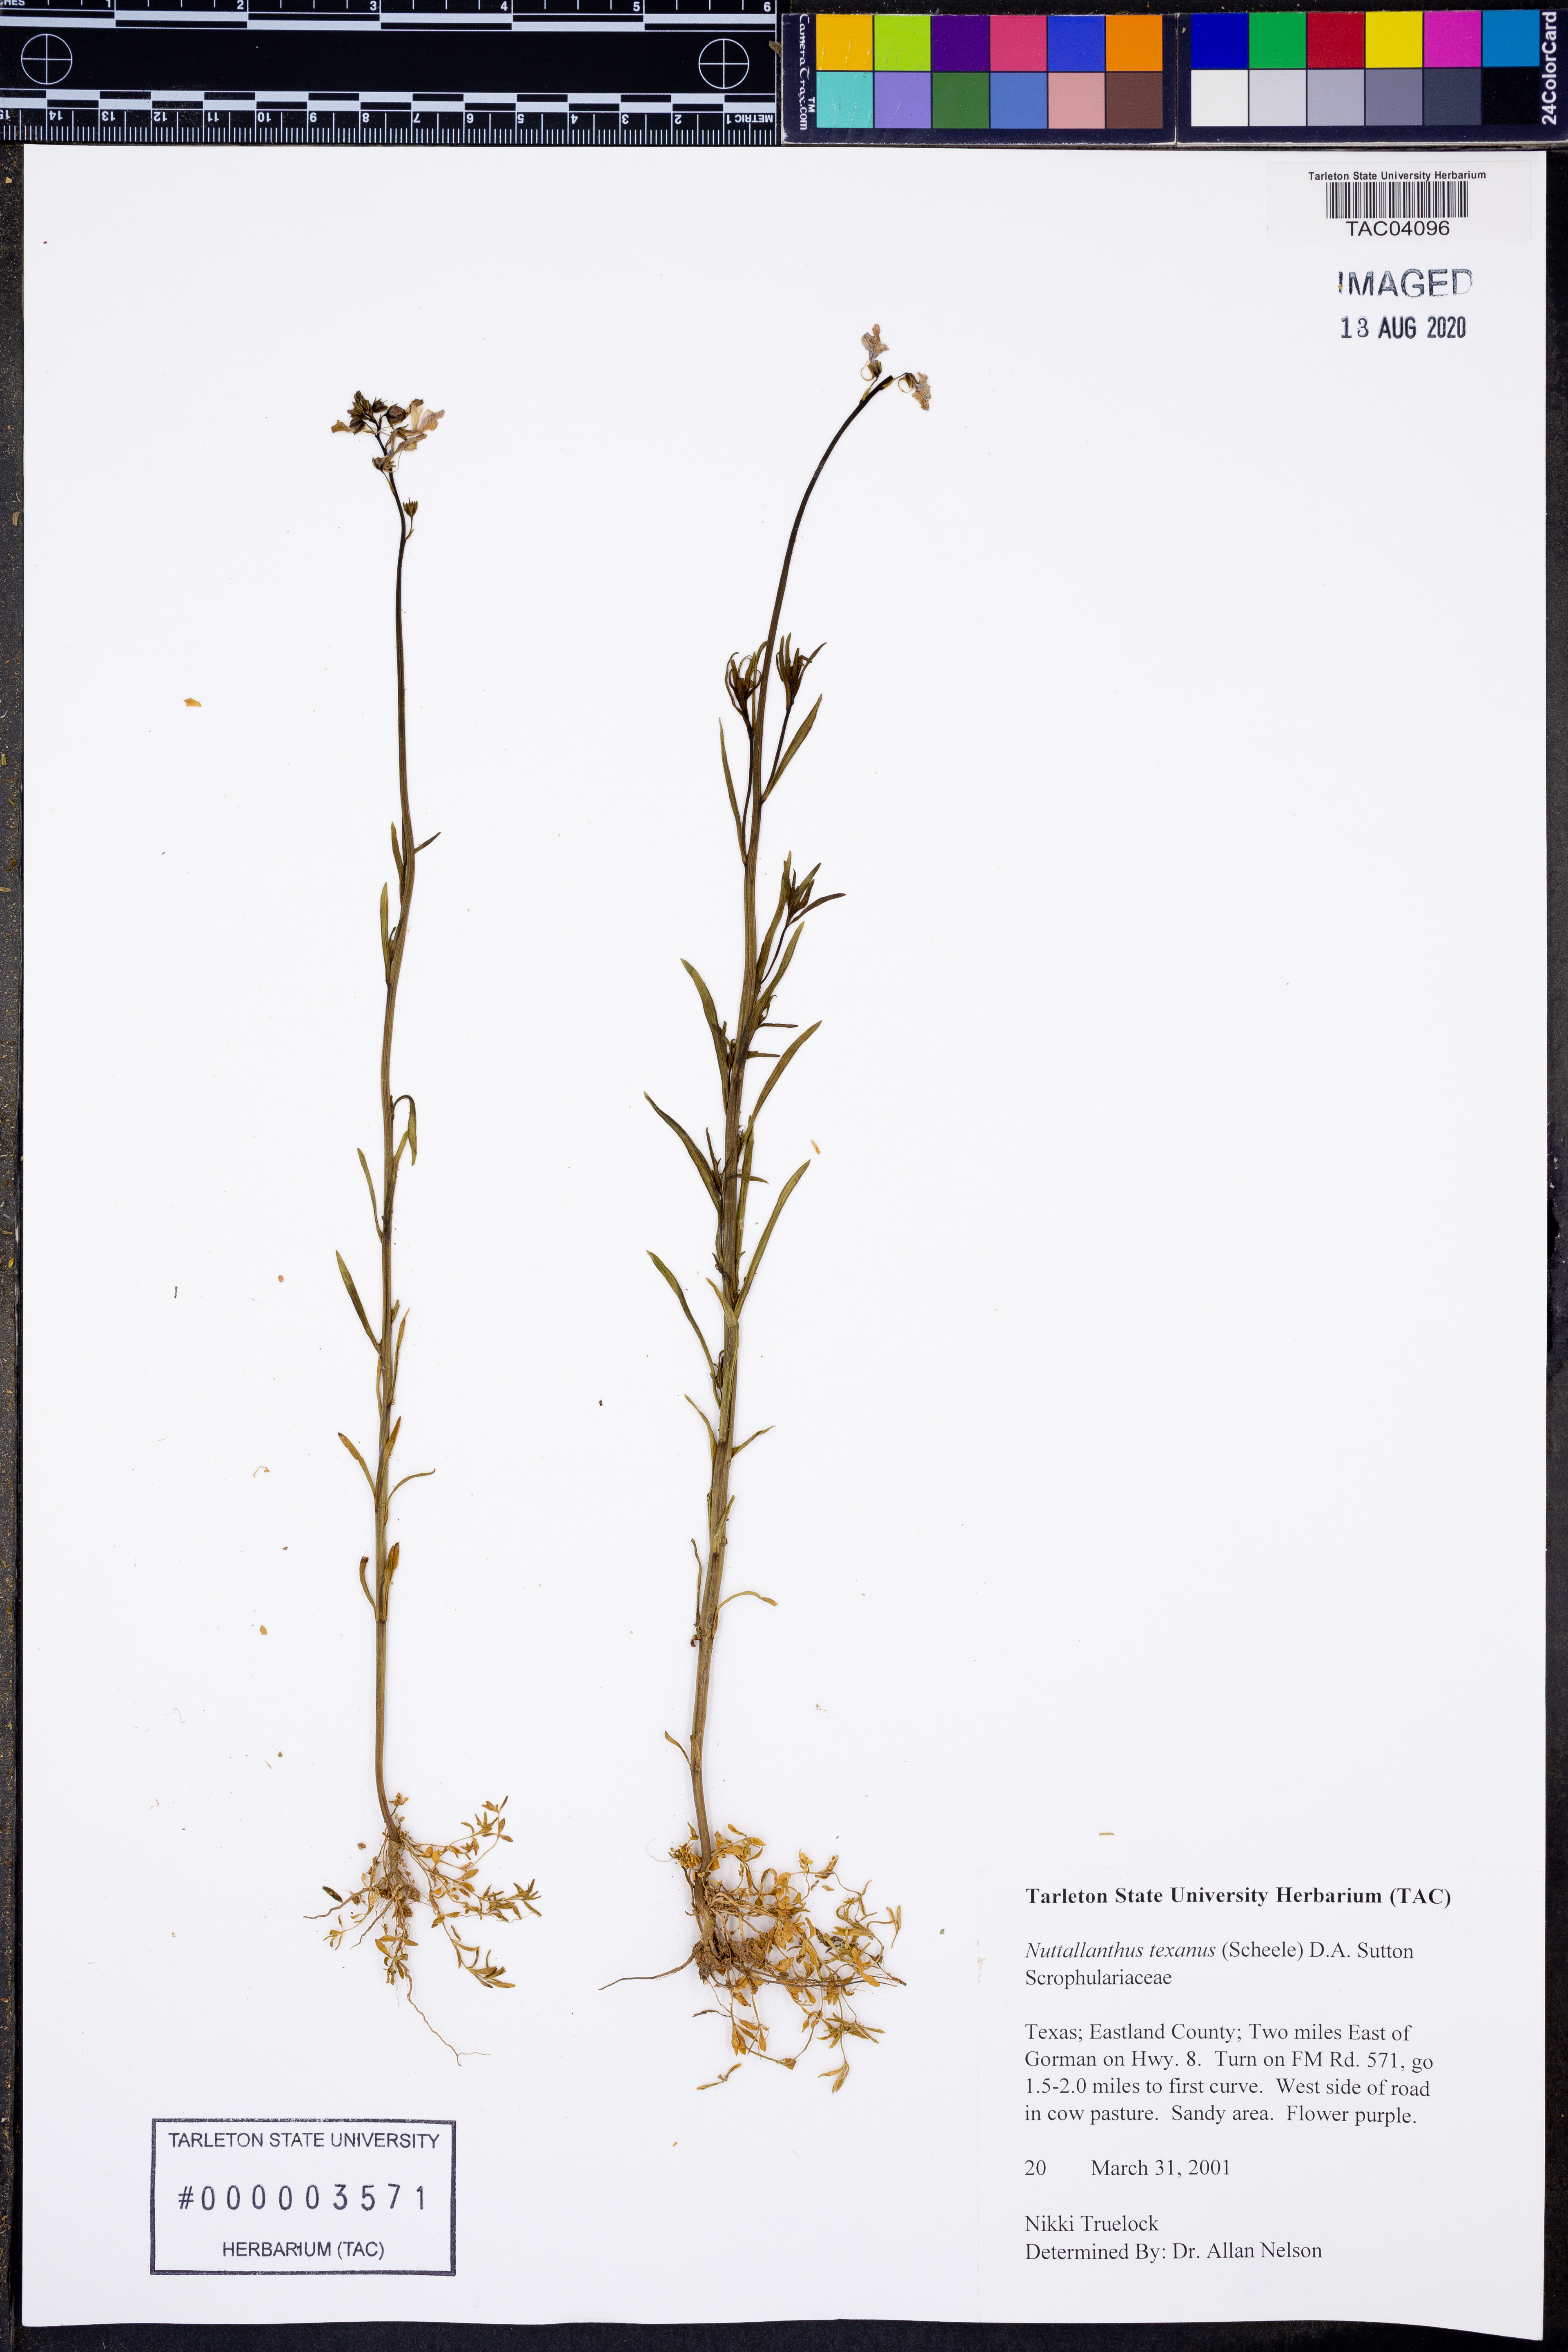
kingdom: Plantae
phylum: Tracheophyta
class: Magnoliopsida
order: Lamiales
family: Plantaginaceae
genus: Nuttallanthus
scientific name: Nuttallanthus texanus
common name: Texas toadflax
